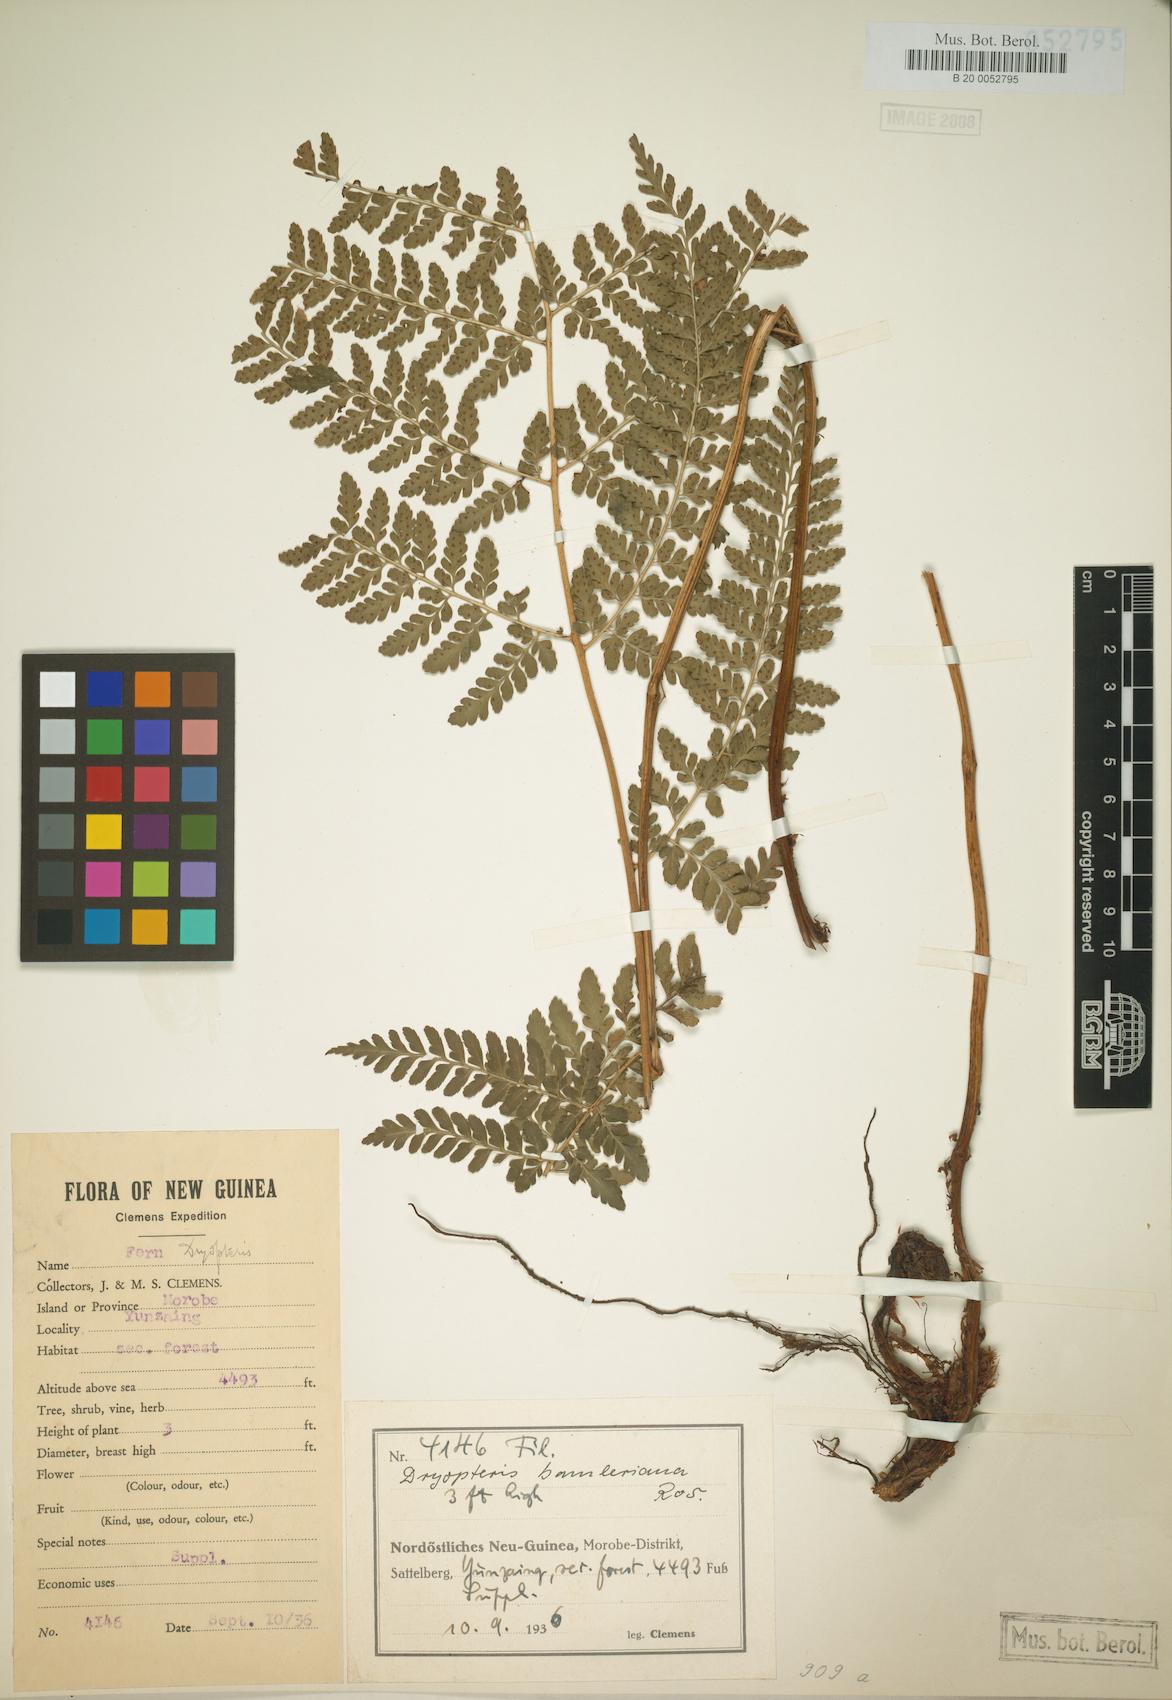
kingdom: Plantae
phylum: Tracheophyta
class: Polypodiopsida
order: Polypodiales
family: Dryopteridaceae
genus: Dryopteris
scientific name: Dryopteris bamleriana
